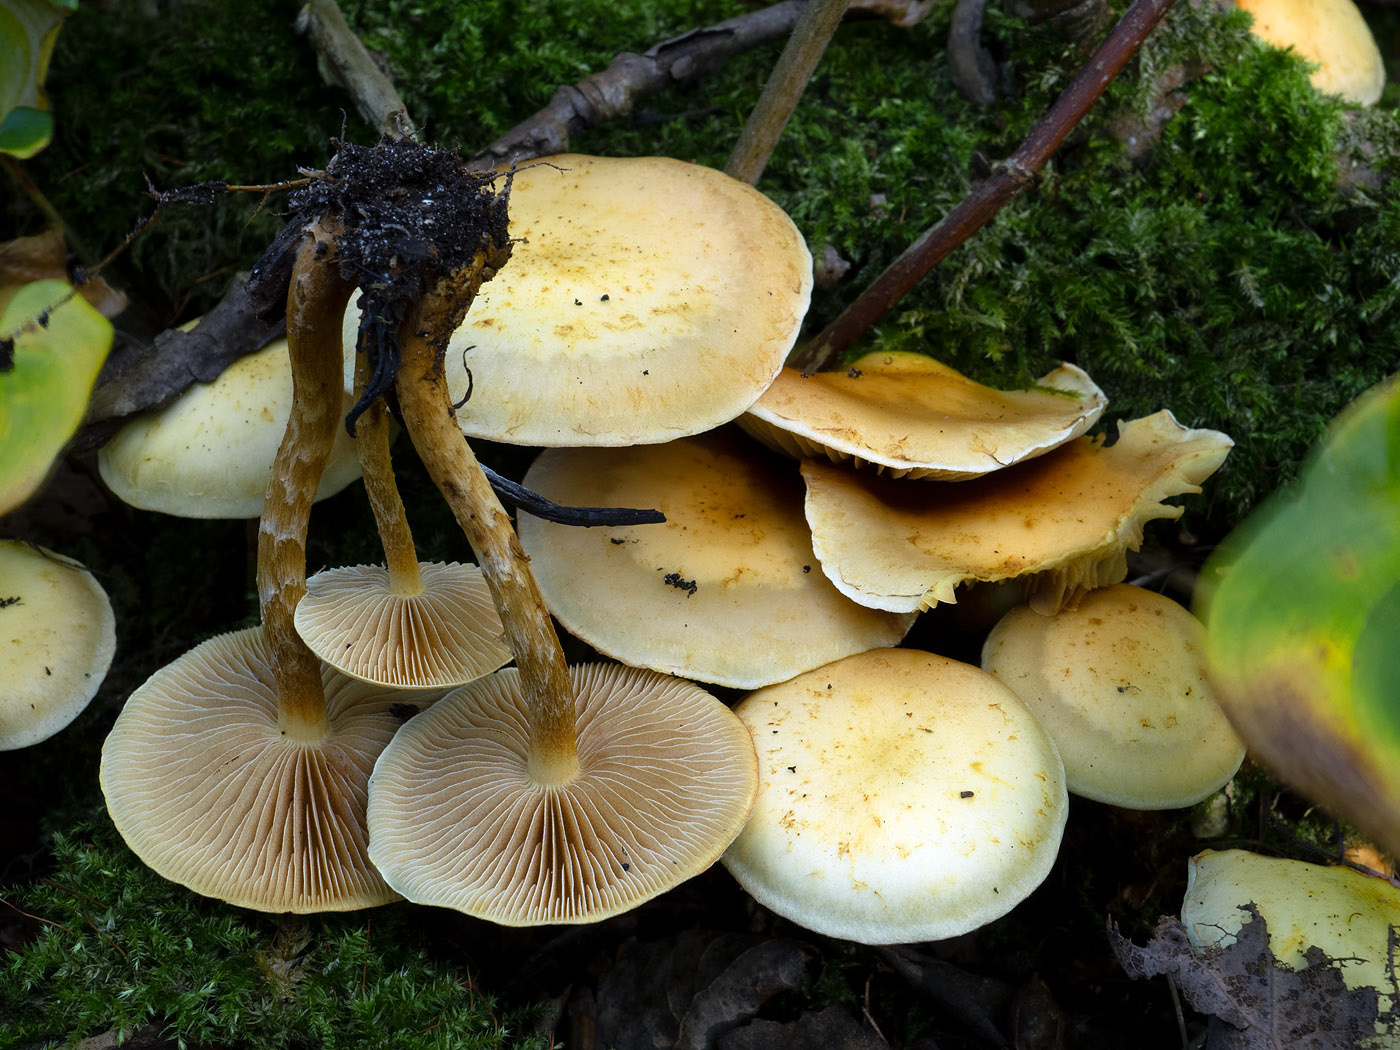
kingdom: Fungi
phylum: Basidiomycota
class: Agaricomycetes
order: Agaricales
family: Hymenogastraceae
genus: Flammula
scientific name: Flammula alnicola
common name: elle-skælhat
